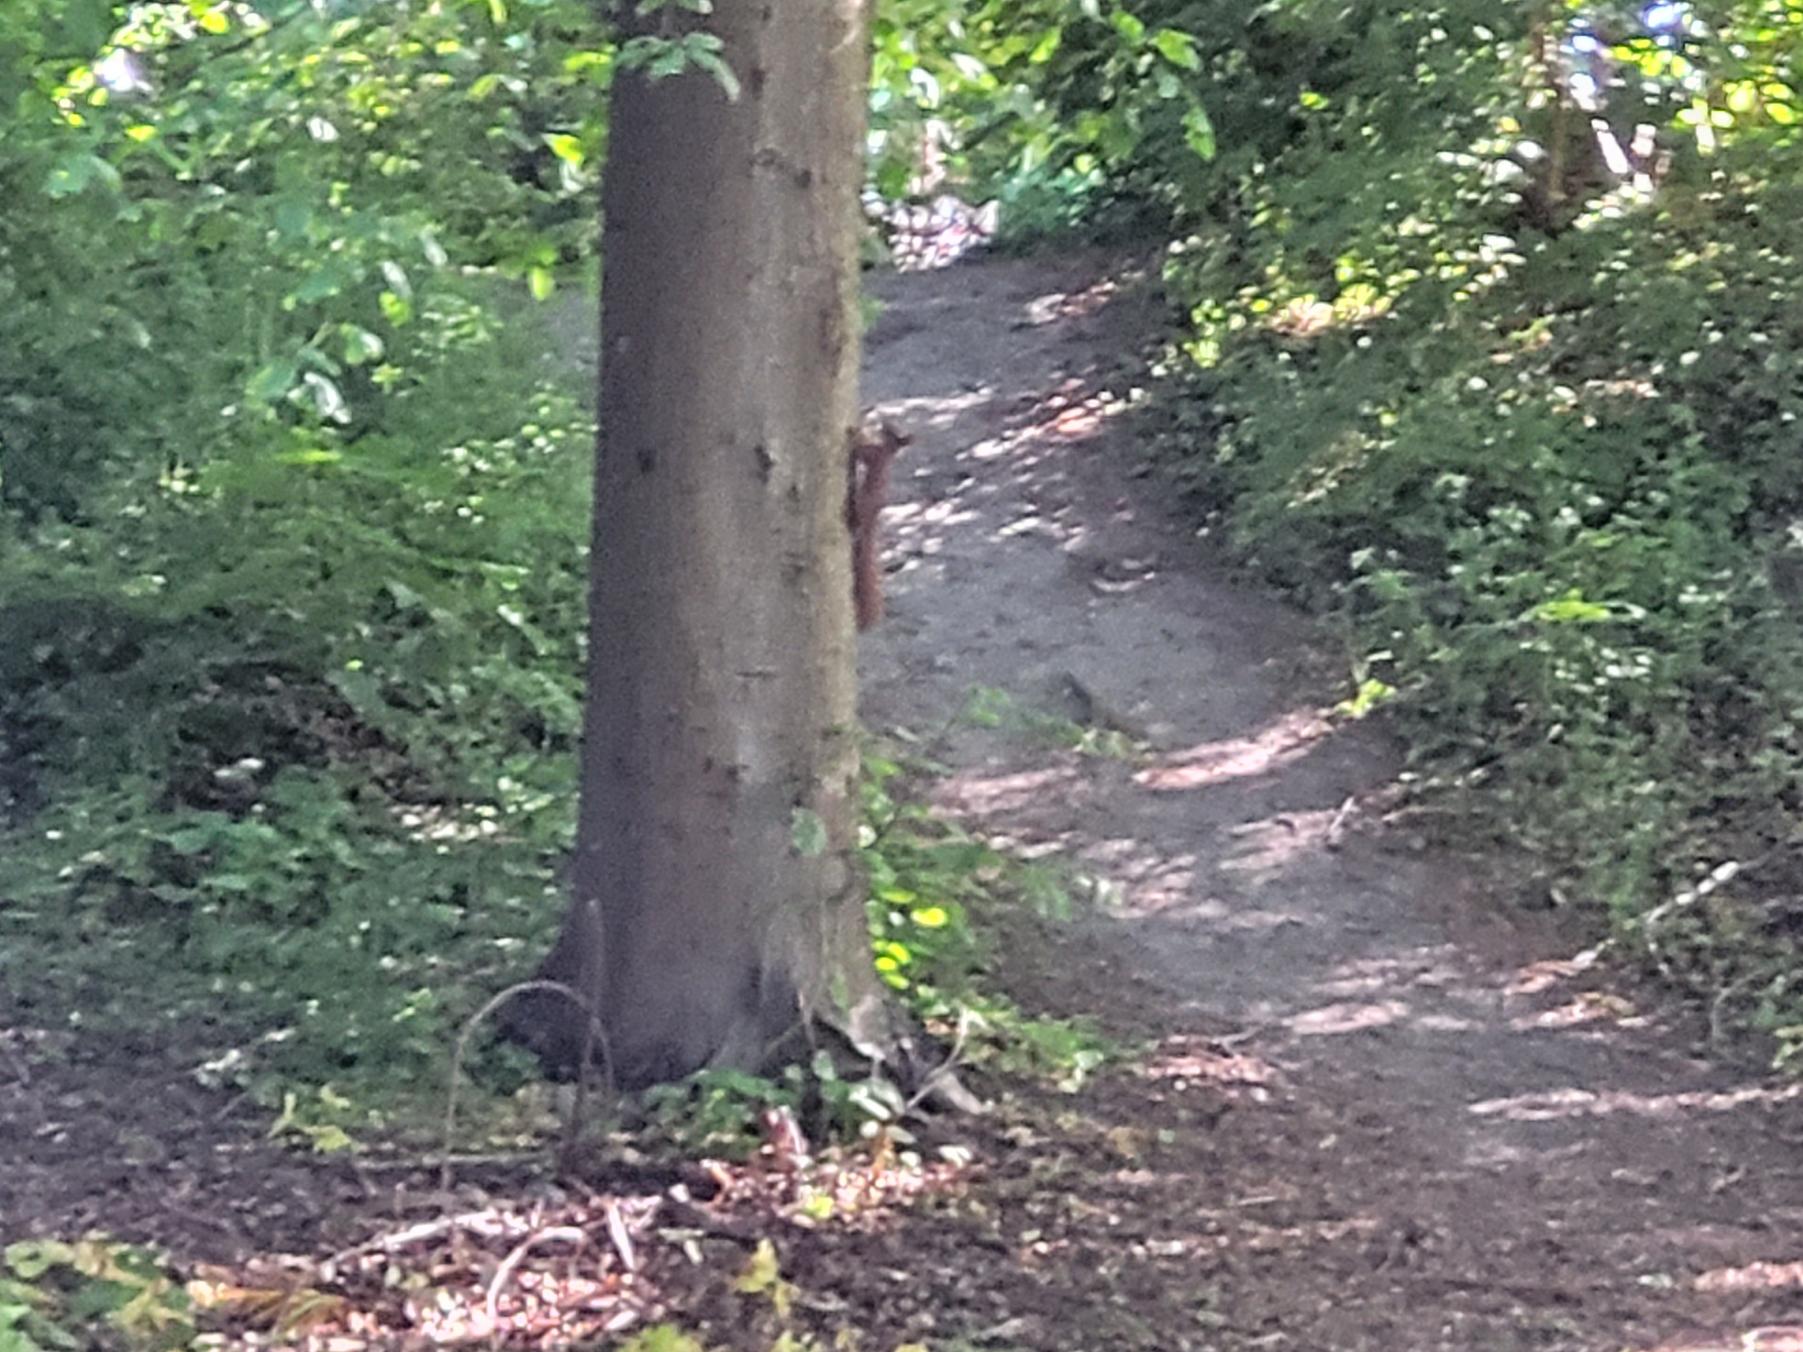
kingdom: Animalia
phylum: Chordata
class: Mammalia
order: Rodentia
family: Sciuridae
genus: Sciurus
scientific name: Sciurus vulgaris
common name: Egern
